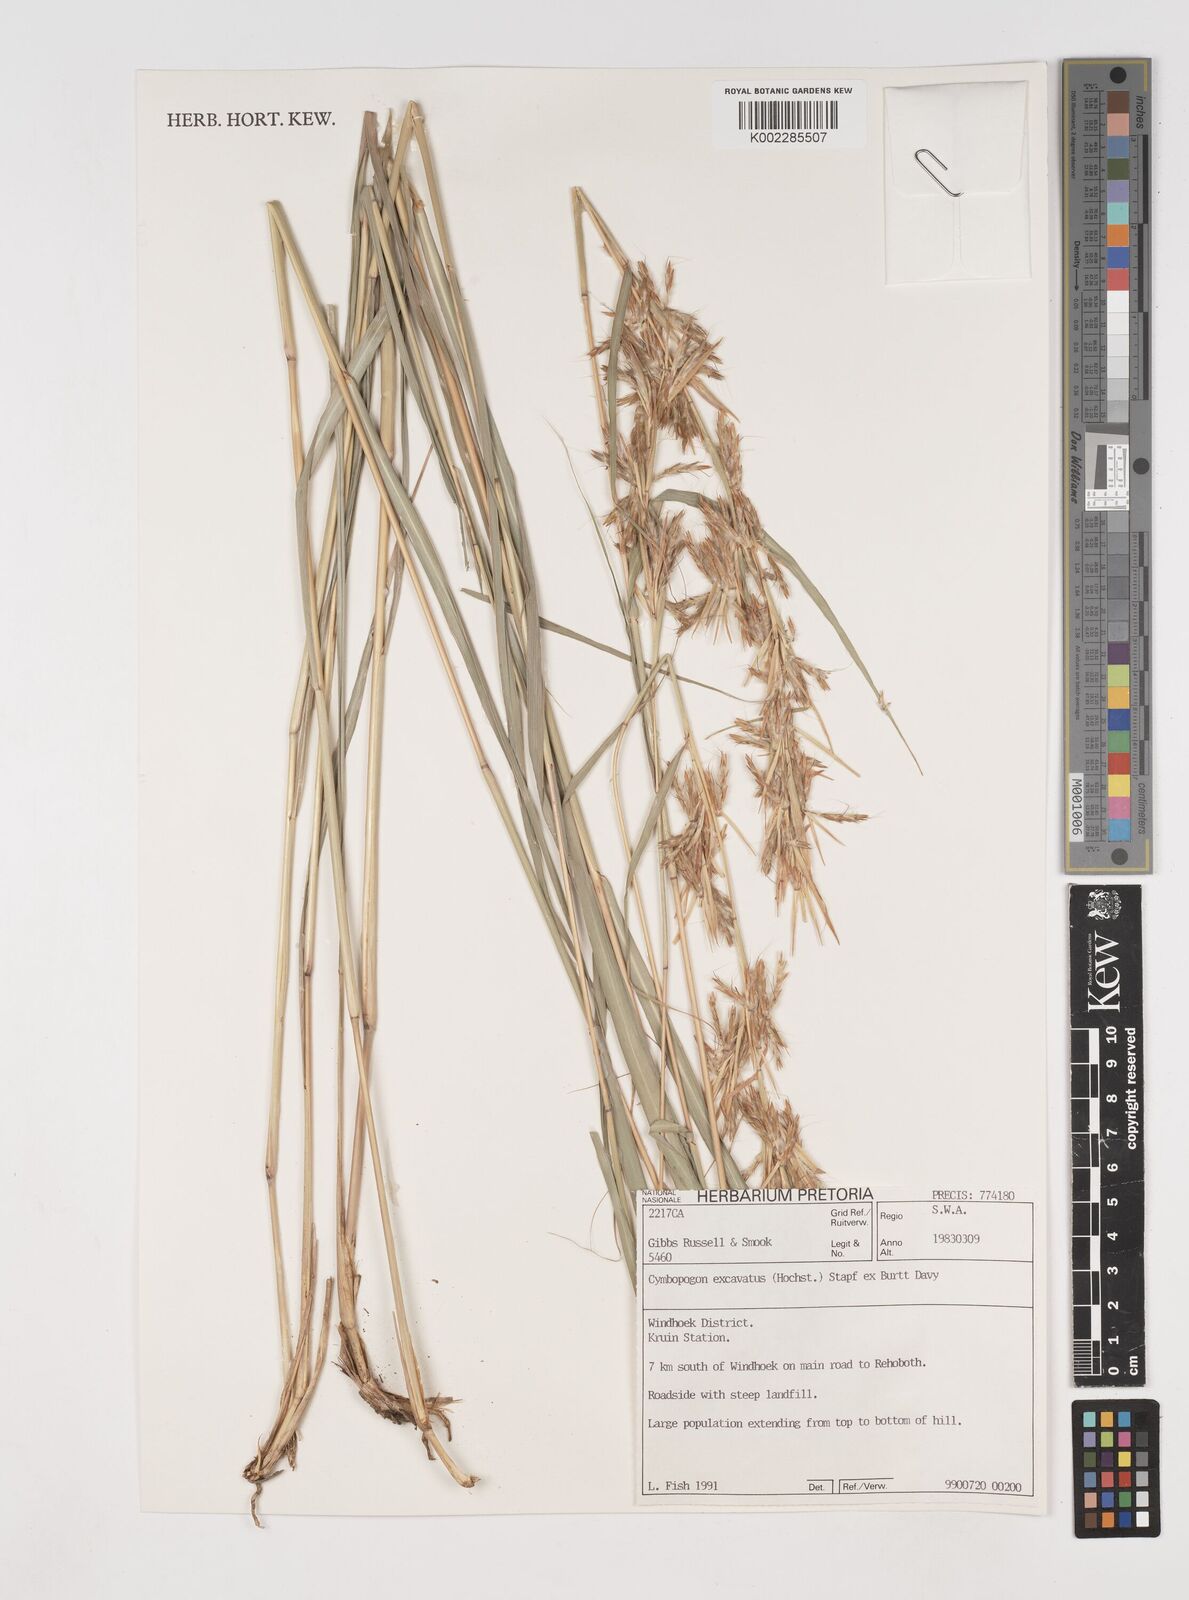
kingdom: Plantae
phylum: Tracheophyta
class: Liliopsida
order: Poales
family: Poaceae
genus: Cymbopogon
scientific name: Cymbopogon caesius
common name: Kachi grass
